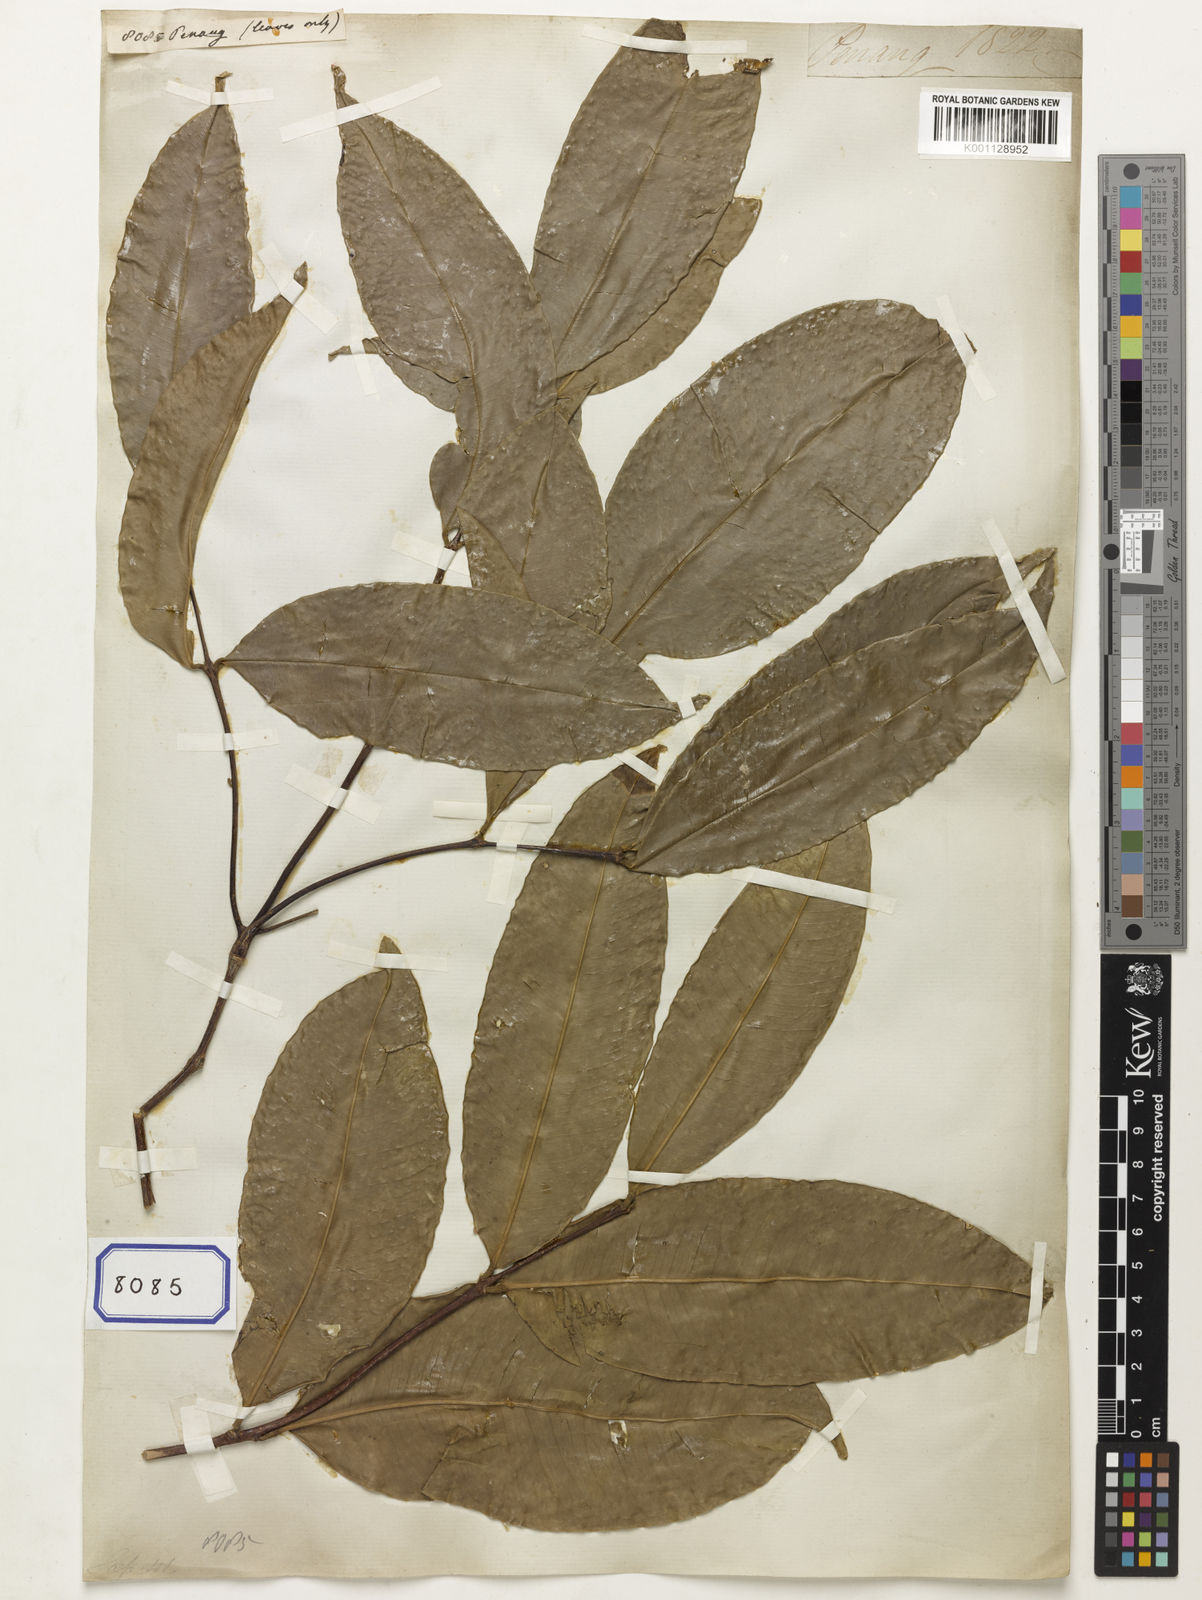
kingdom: Plantae
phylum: Tracheophyta
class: Magnoliopsida
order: Sapindales
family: Sapindaceae
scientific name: Sapindaceae
